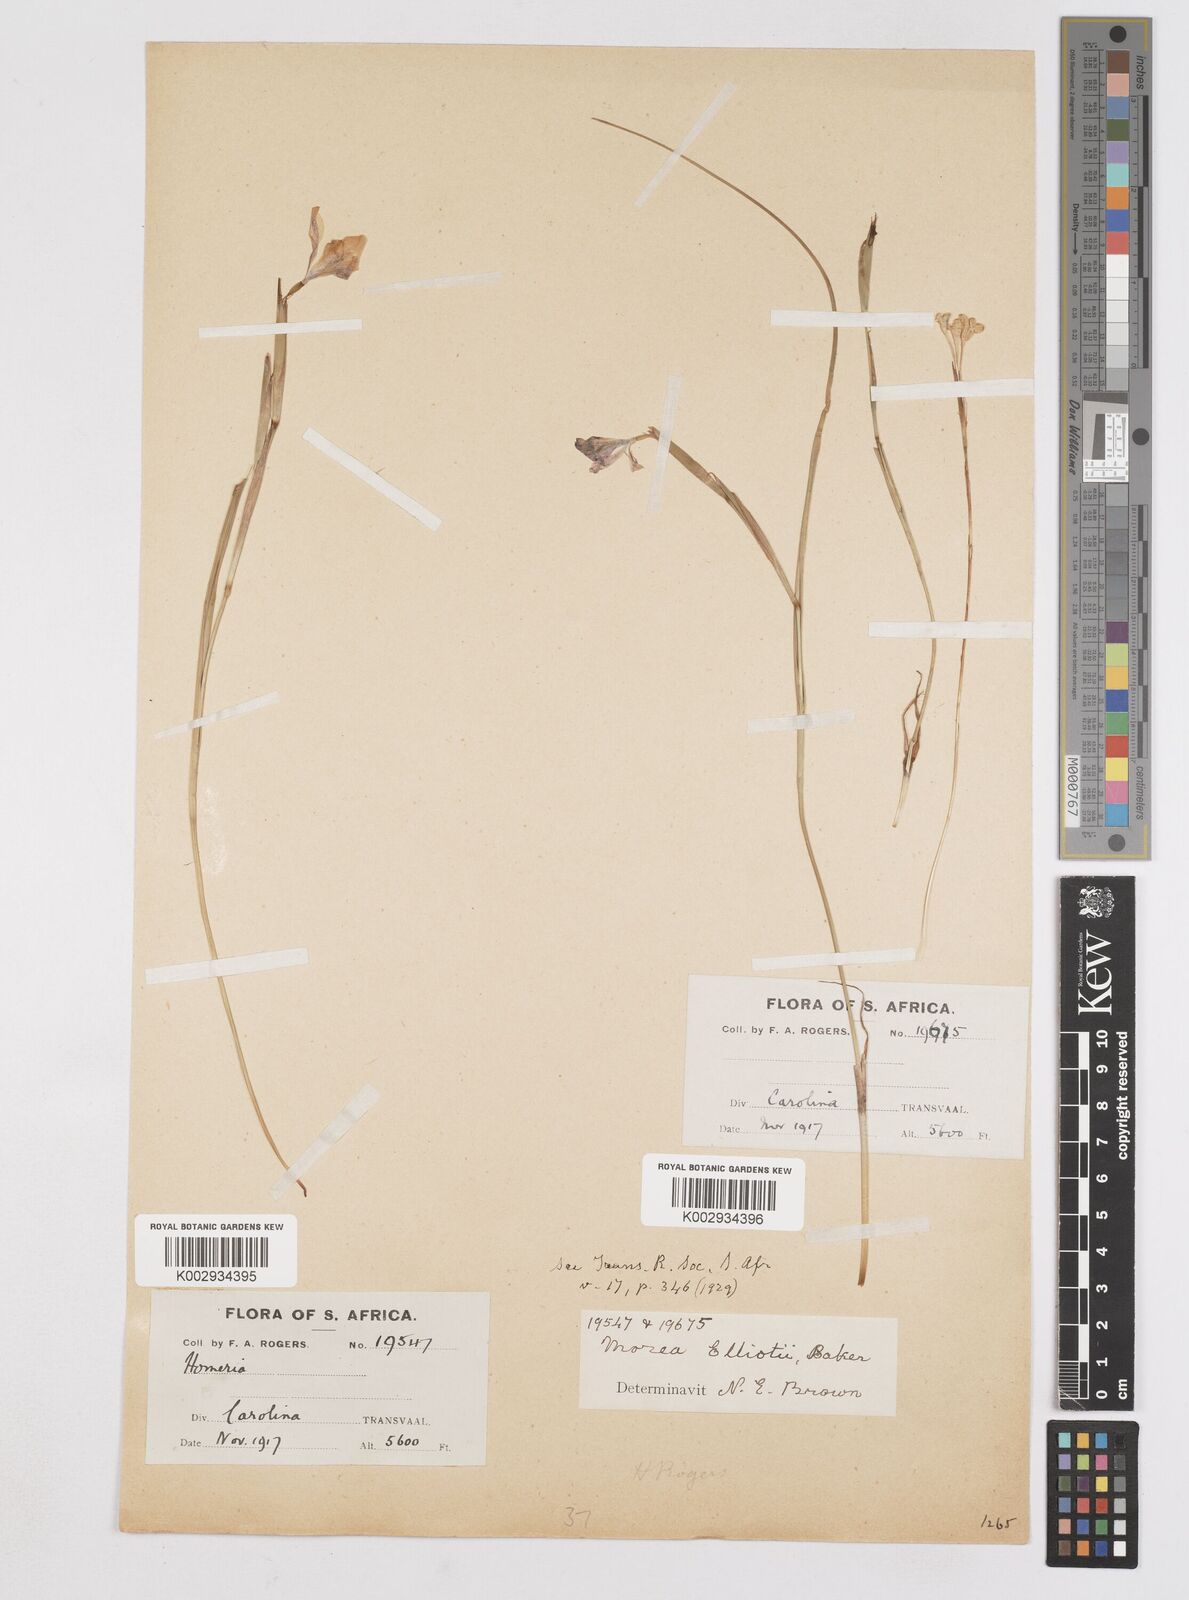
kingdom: Plantae
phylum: Tracheophyta
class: Liliopsida
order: Asparagales
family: Iridaceae
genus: Moraea
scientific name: Moraea elliotii
